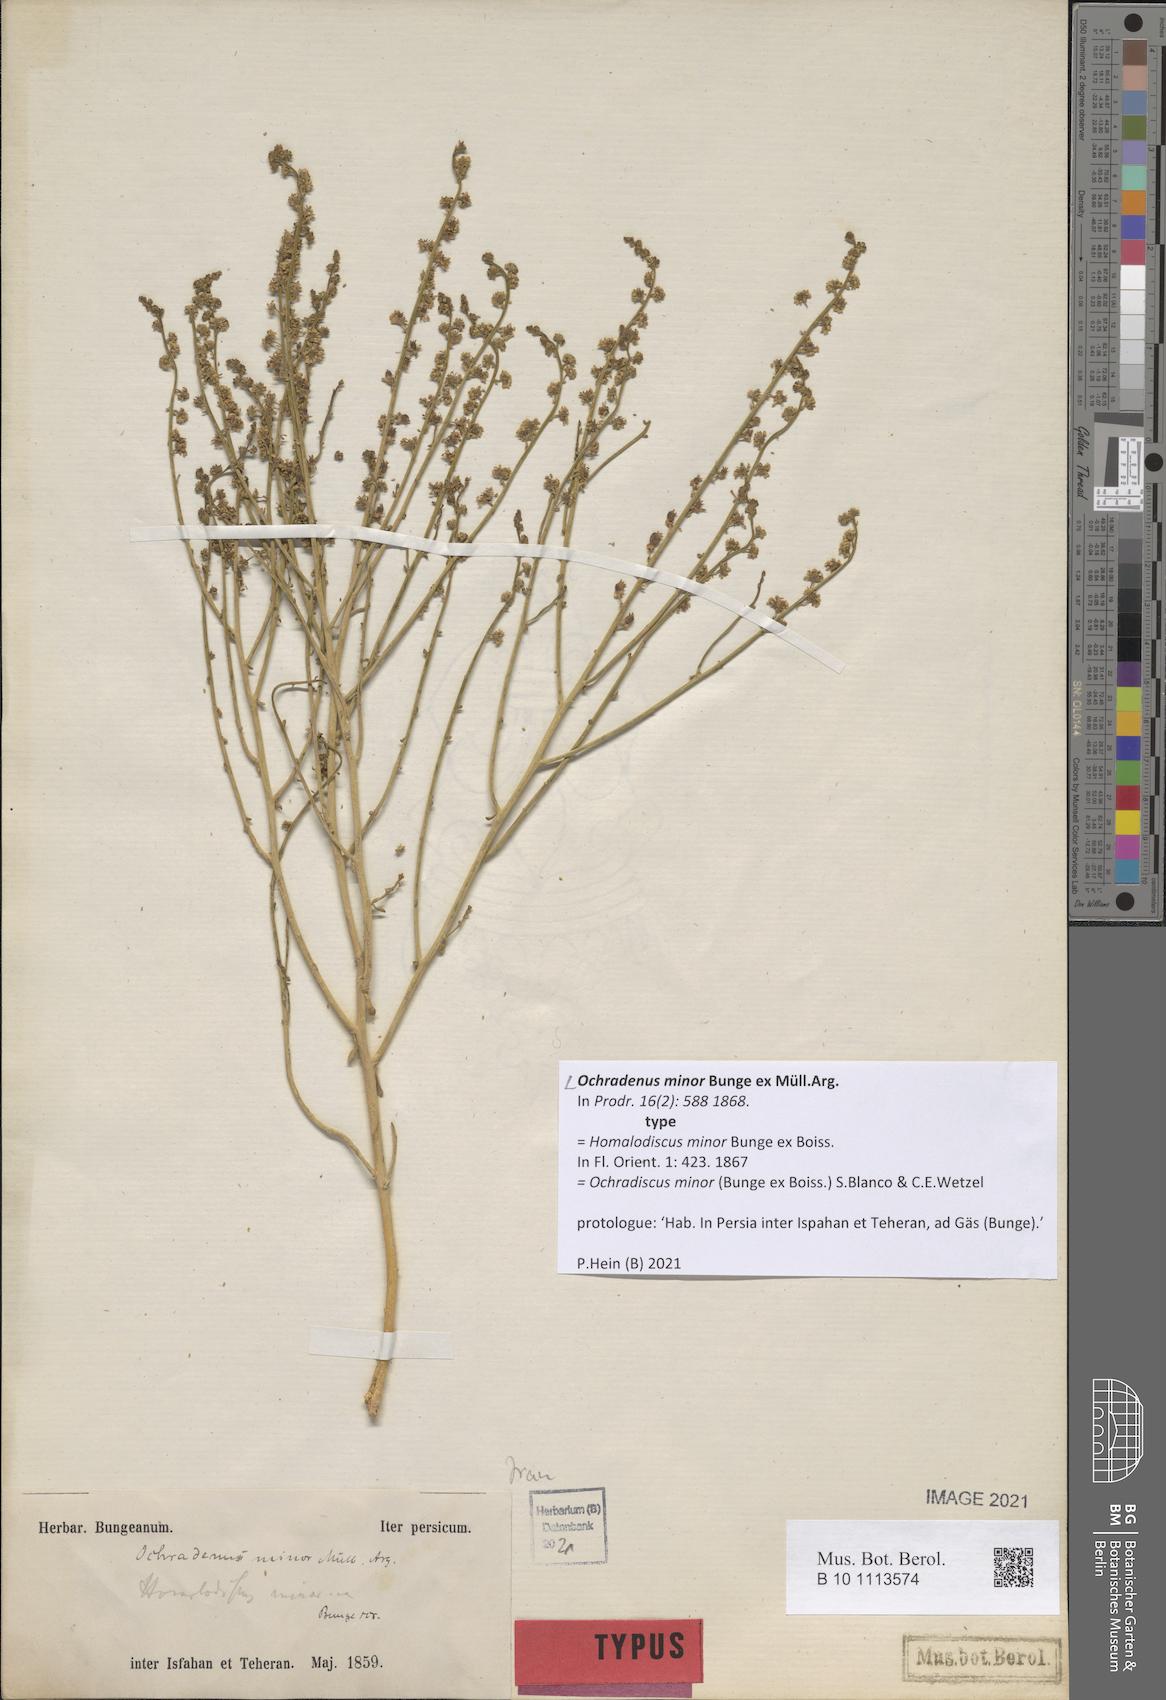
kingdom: Plantae
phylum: Tracheophyta
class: Magnoliopsida
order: Brassicales
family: Resedaceae
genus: Ochradiscus
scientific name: Ochradiscus minor
